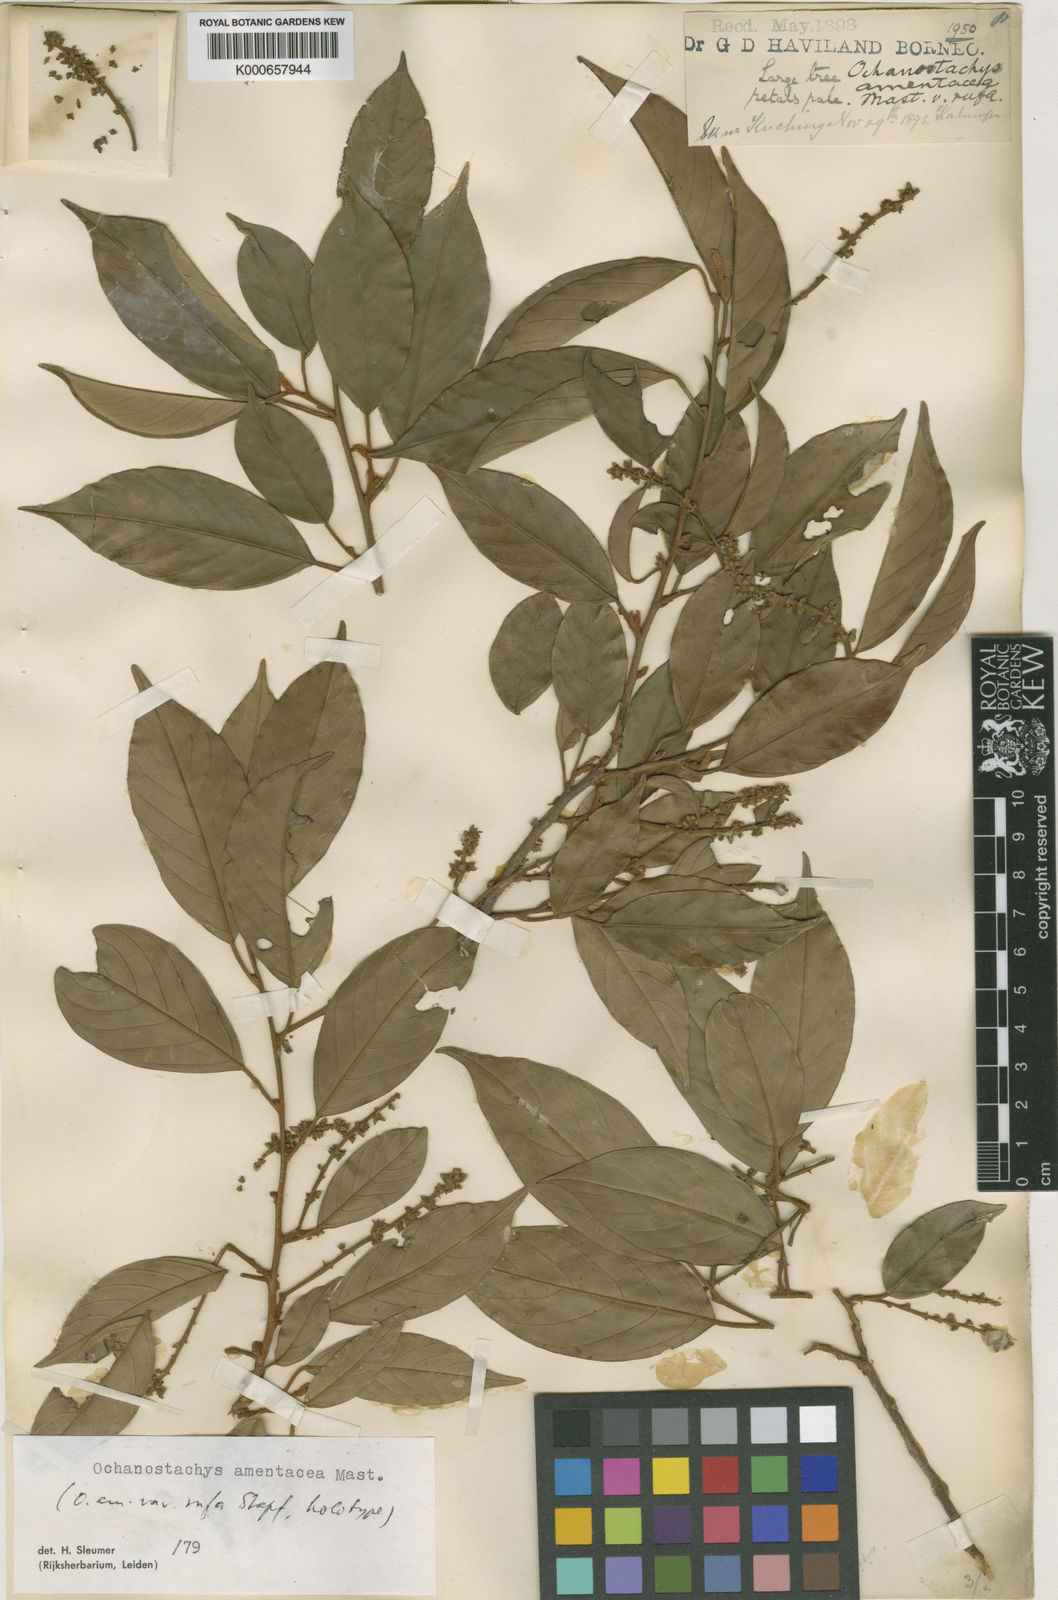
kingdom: Plantae
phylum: Tracheophyta
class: Magnoliopsida
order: Santalales
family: Coulaceae
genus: Ochanostachys
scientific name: Ochanostachys amentacea
